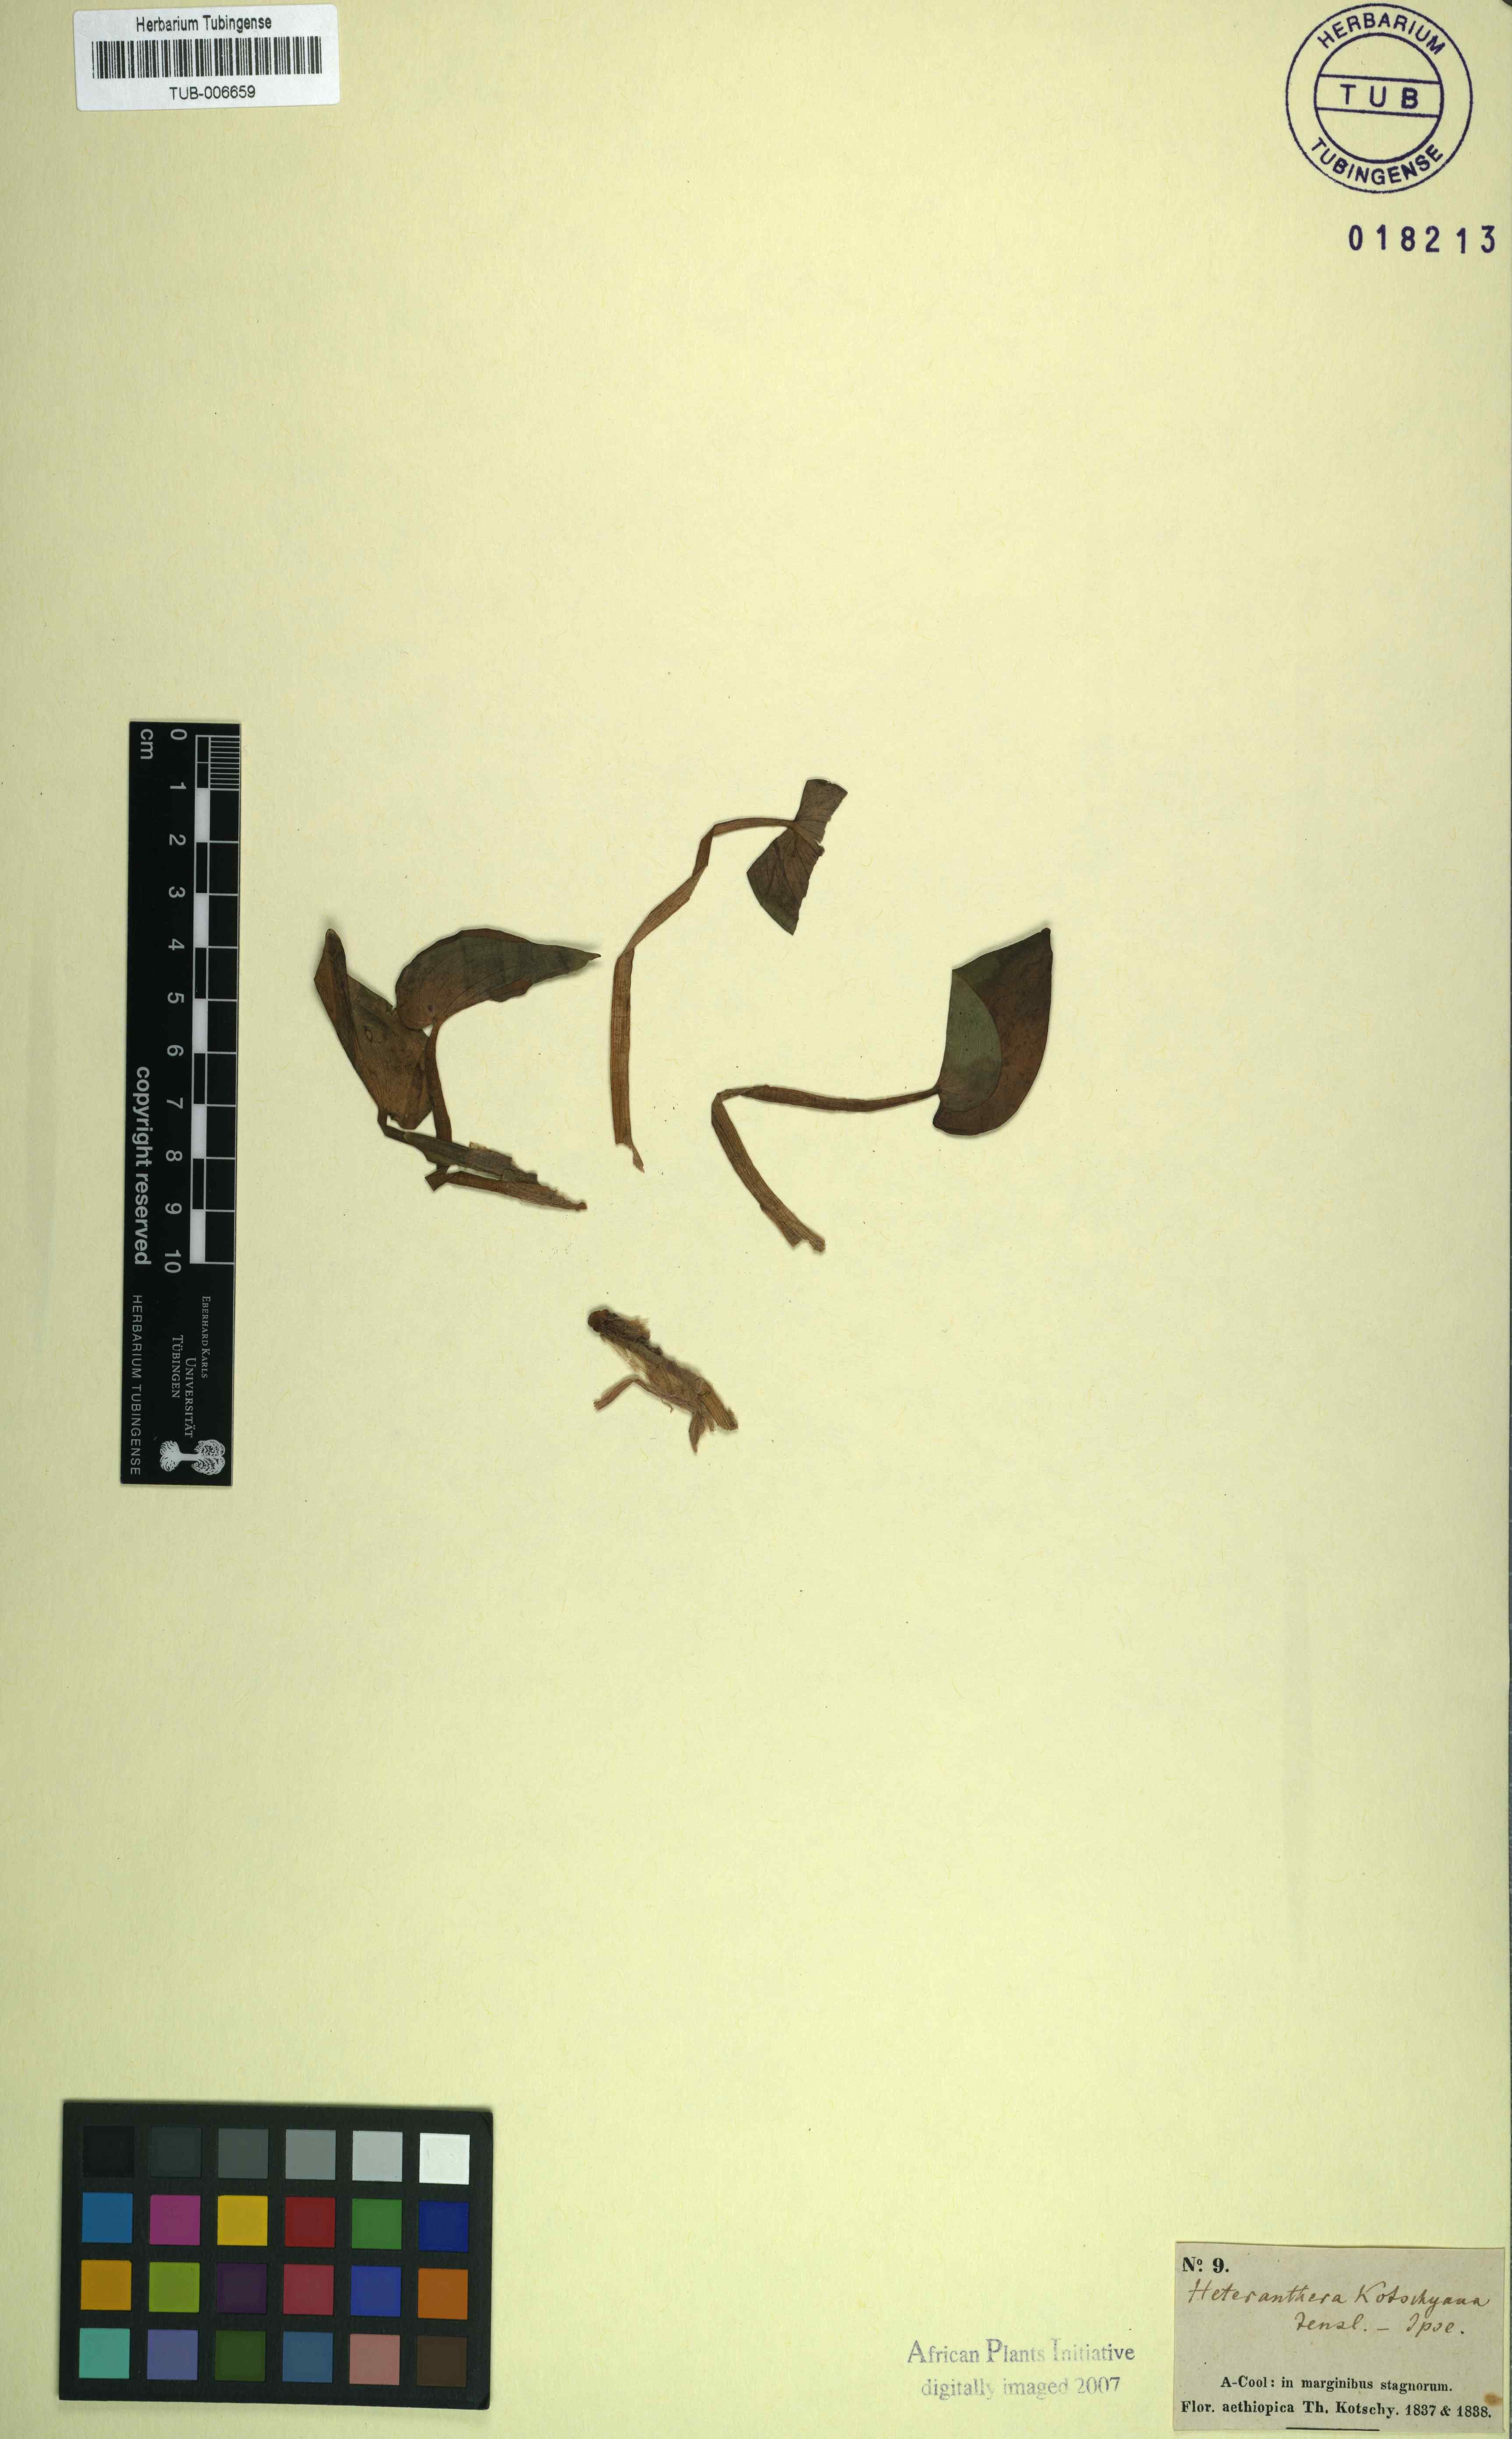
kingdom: Plantae
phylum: Tracheophyta
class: Liliopsida
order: Commelinales
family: Pontederiaceae
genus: Heteranthera
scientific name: Heteranthera callifolia
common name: Mud plantain
